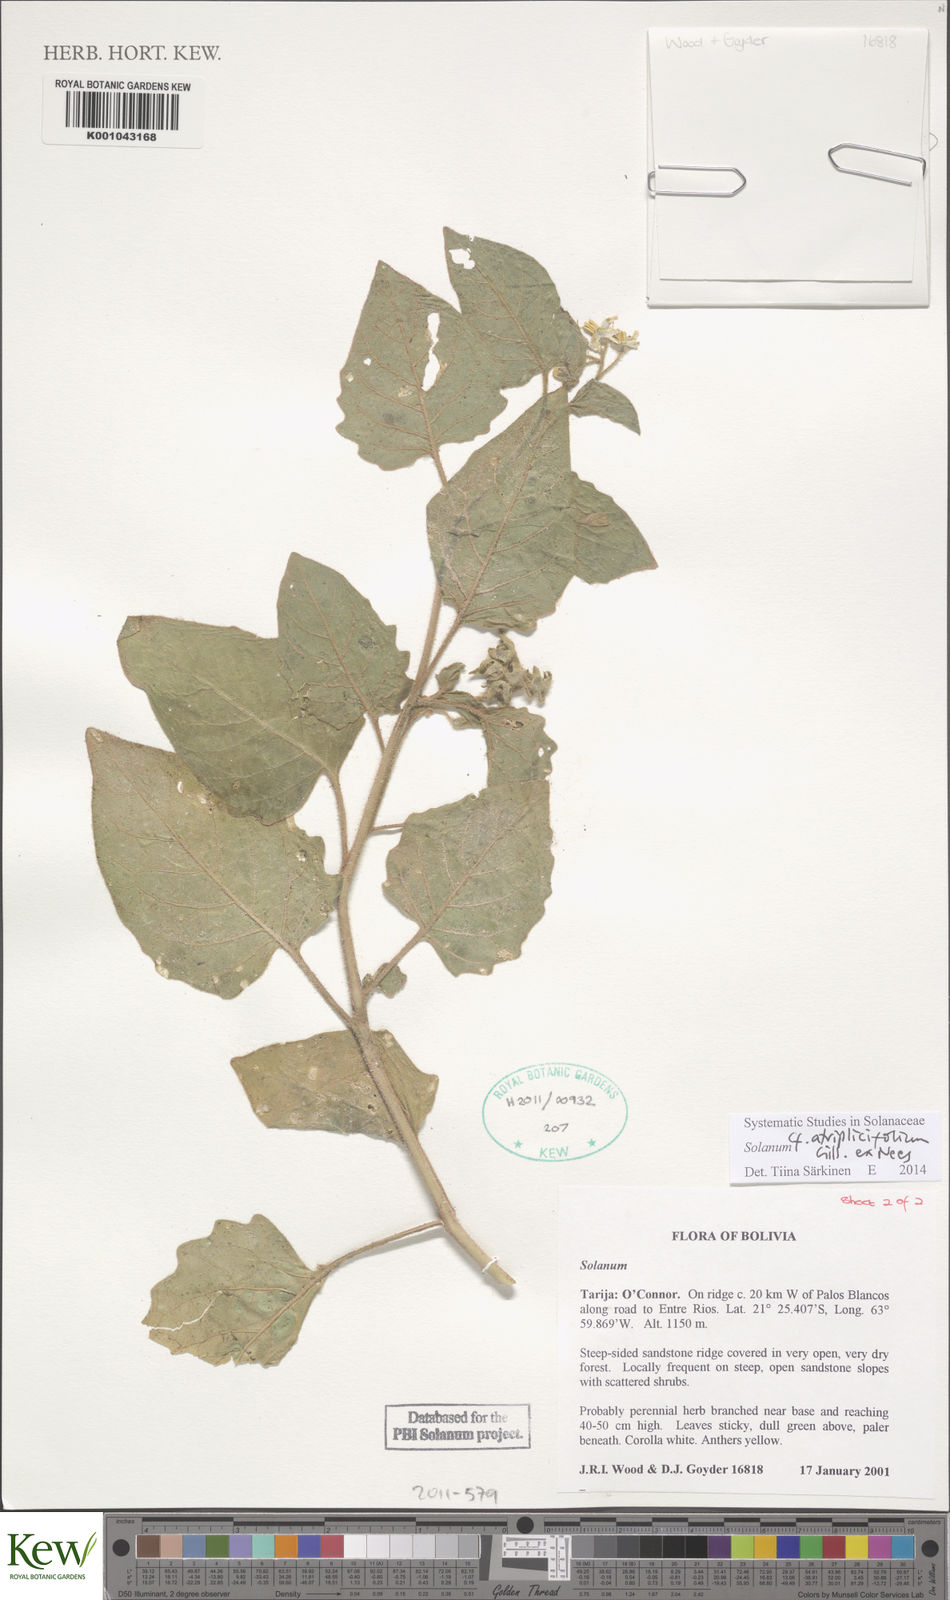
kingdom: Plantae
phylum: Tracheophyta
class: Magnoliopsida
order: Solanales
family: Solanaceae
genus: Solanum
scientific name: Solanum tweedianum
